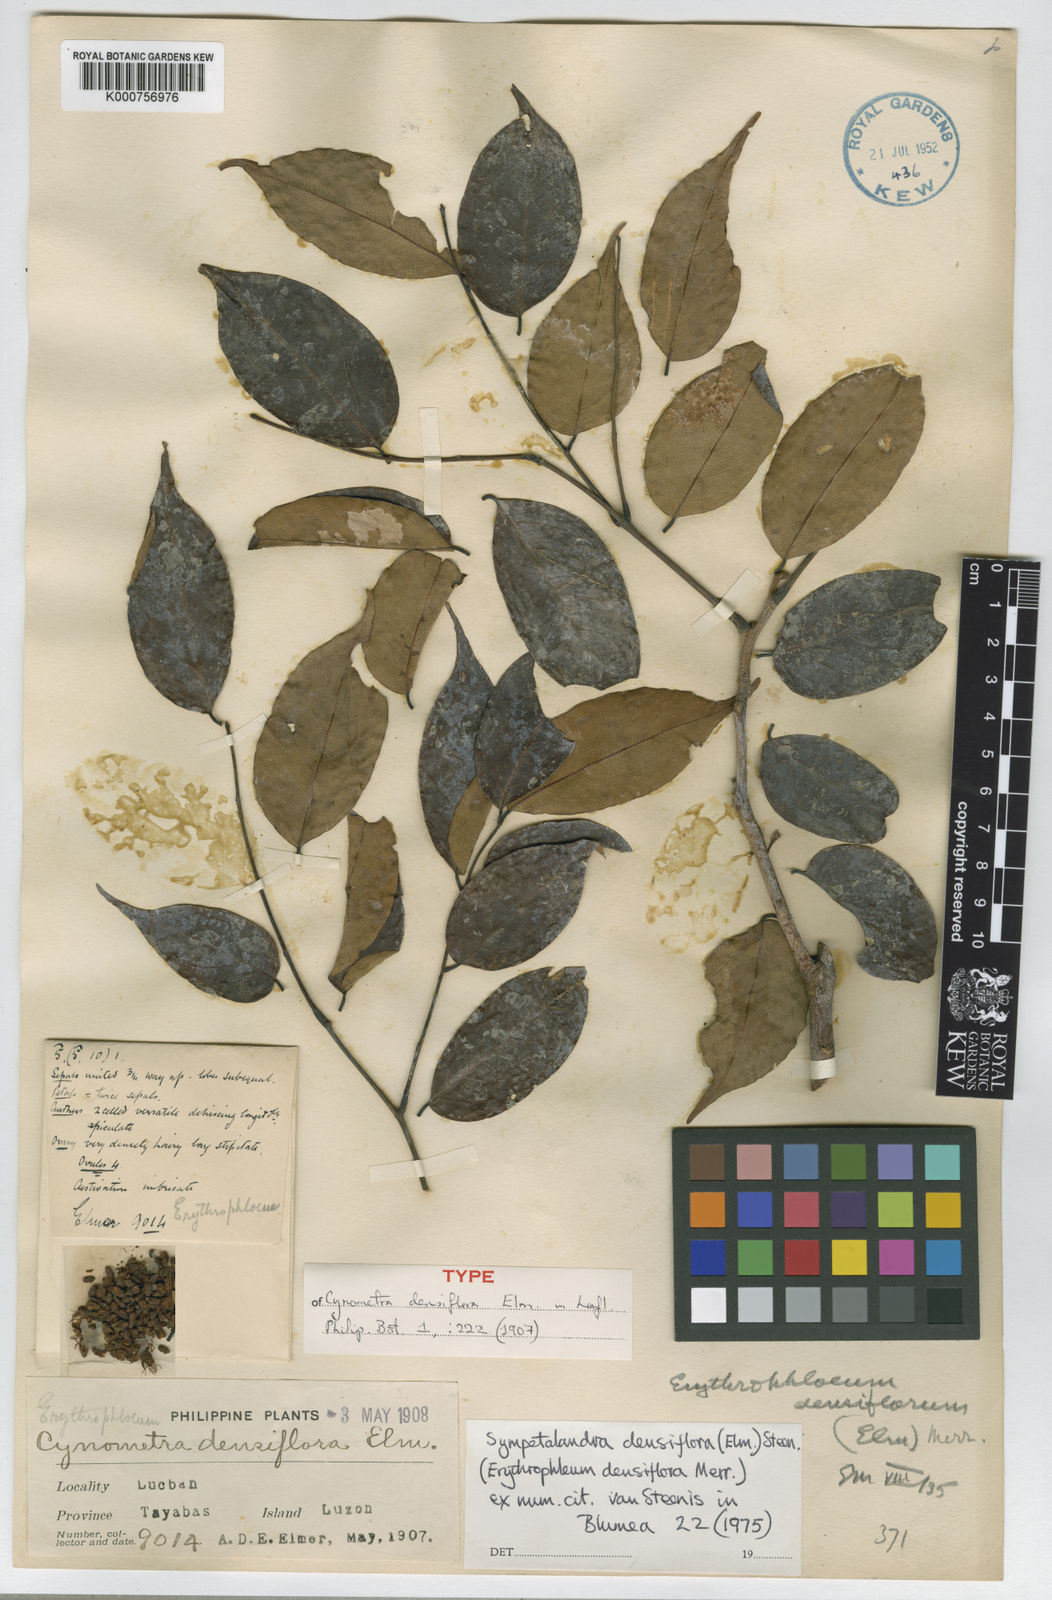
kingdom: Plantae
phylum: Tracheophyta
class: Magnoliopsida
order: Fabales
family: Fabaceae
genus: Sympetalandra
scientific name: Sympetalandra densiflora
